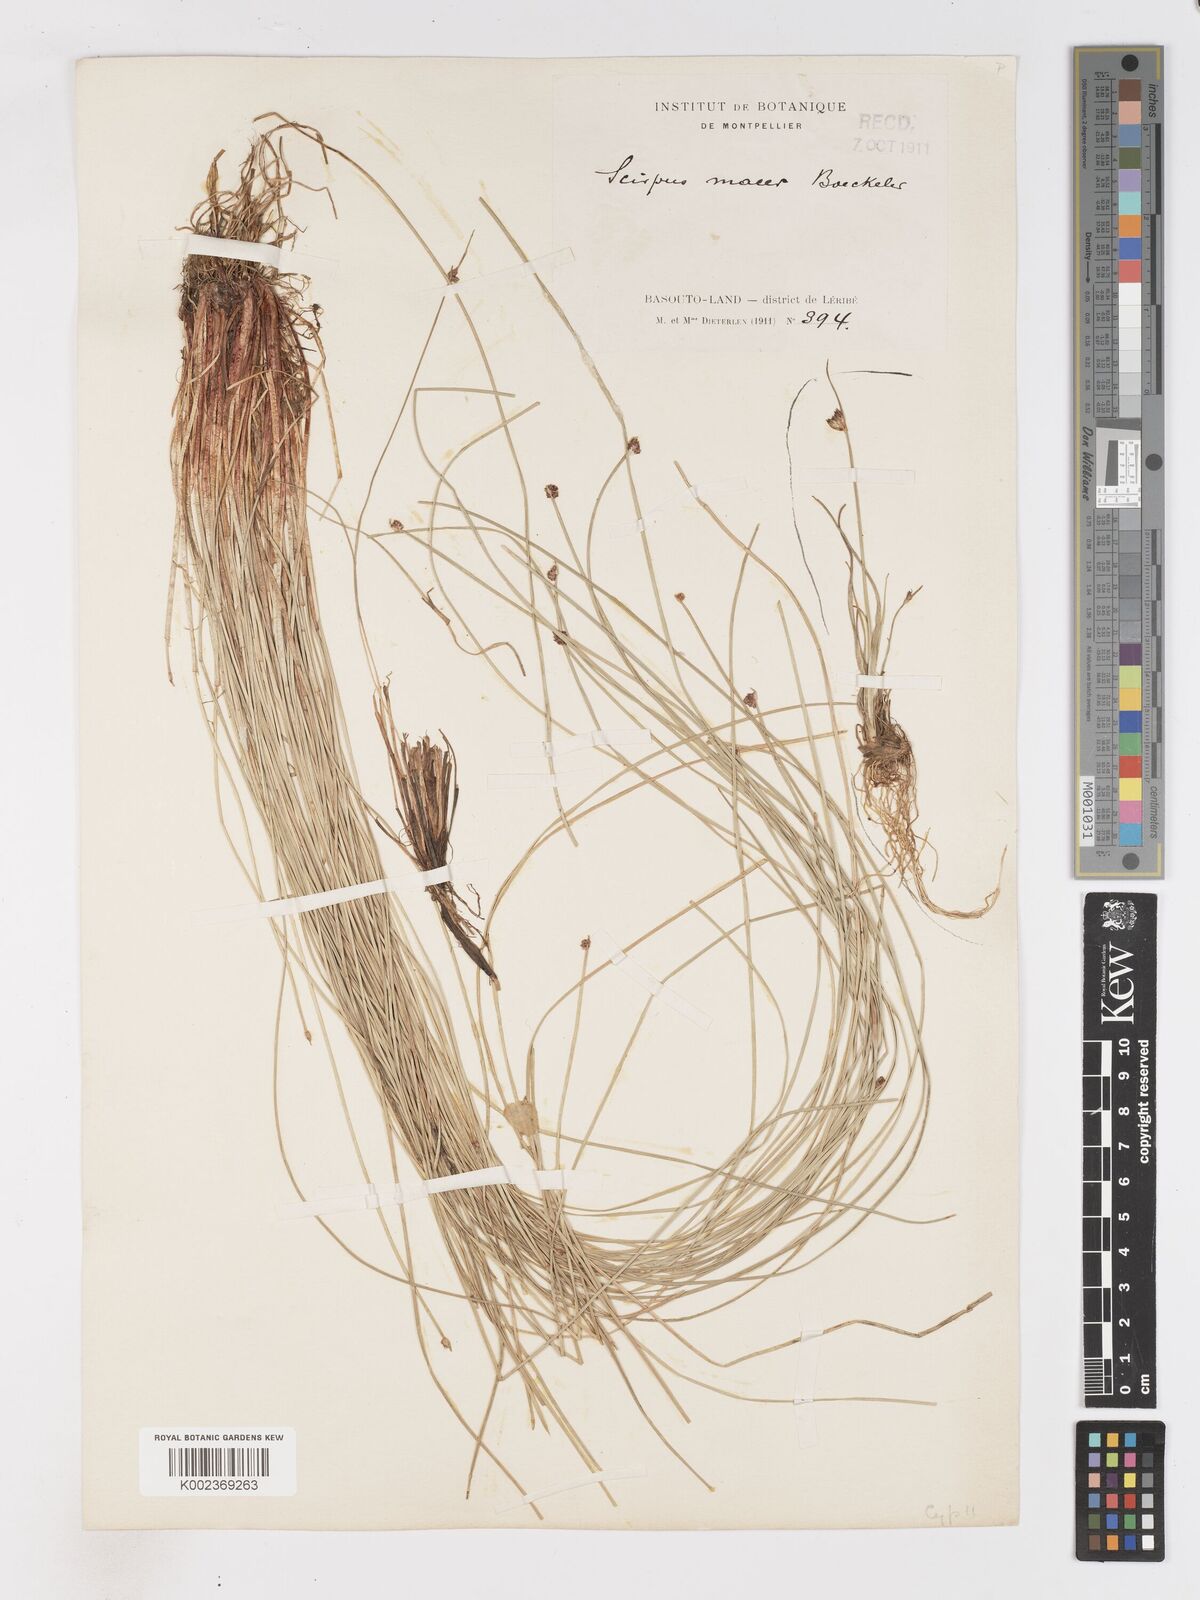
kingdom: Plantae
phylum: Tracheophyta
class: Liliopsida
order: Poales
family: Cyperaceae
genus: Isolepis
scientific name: Isolepis costata
